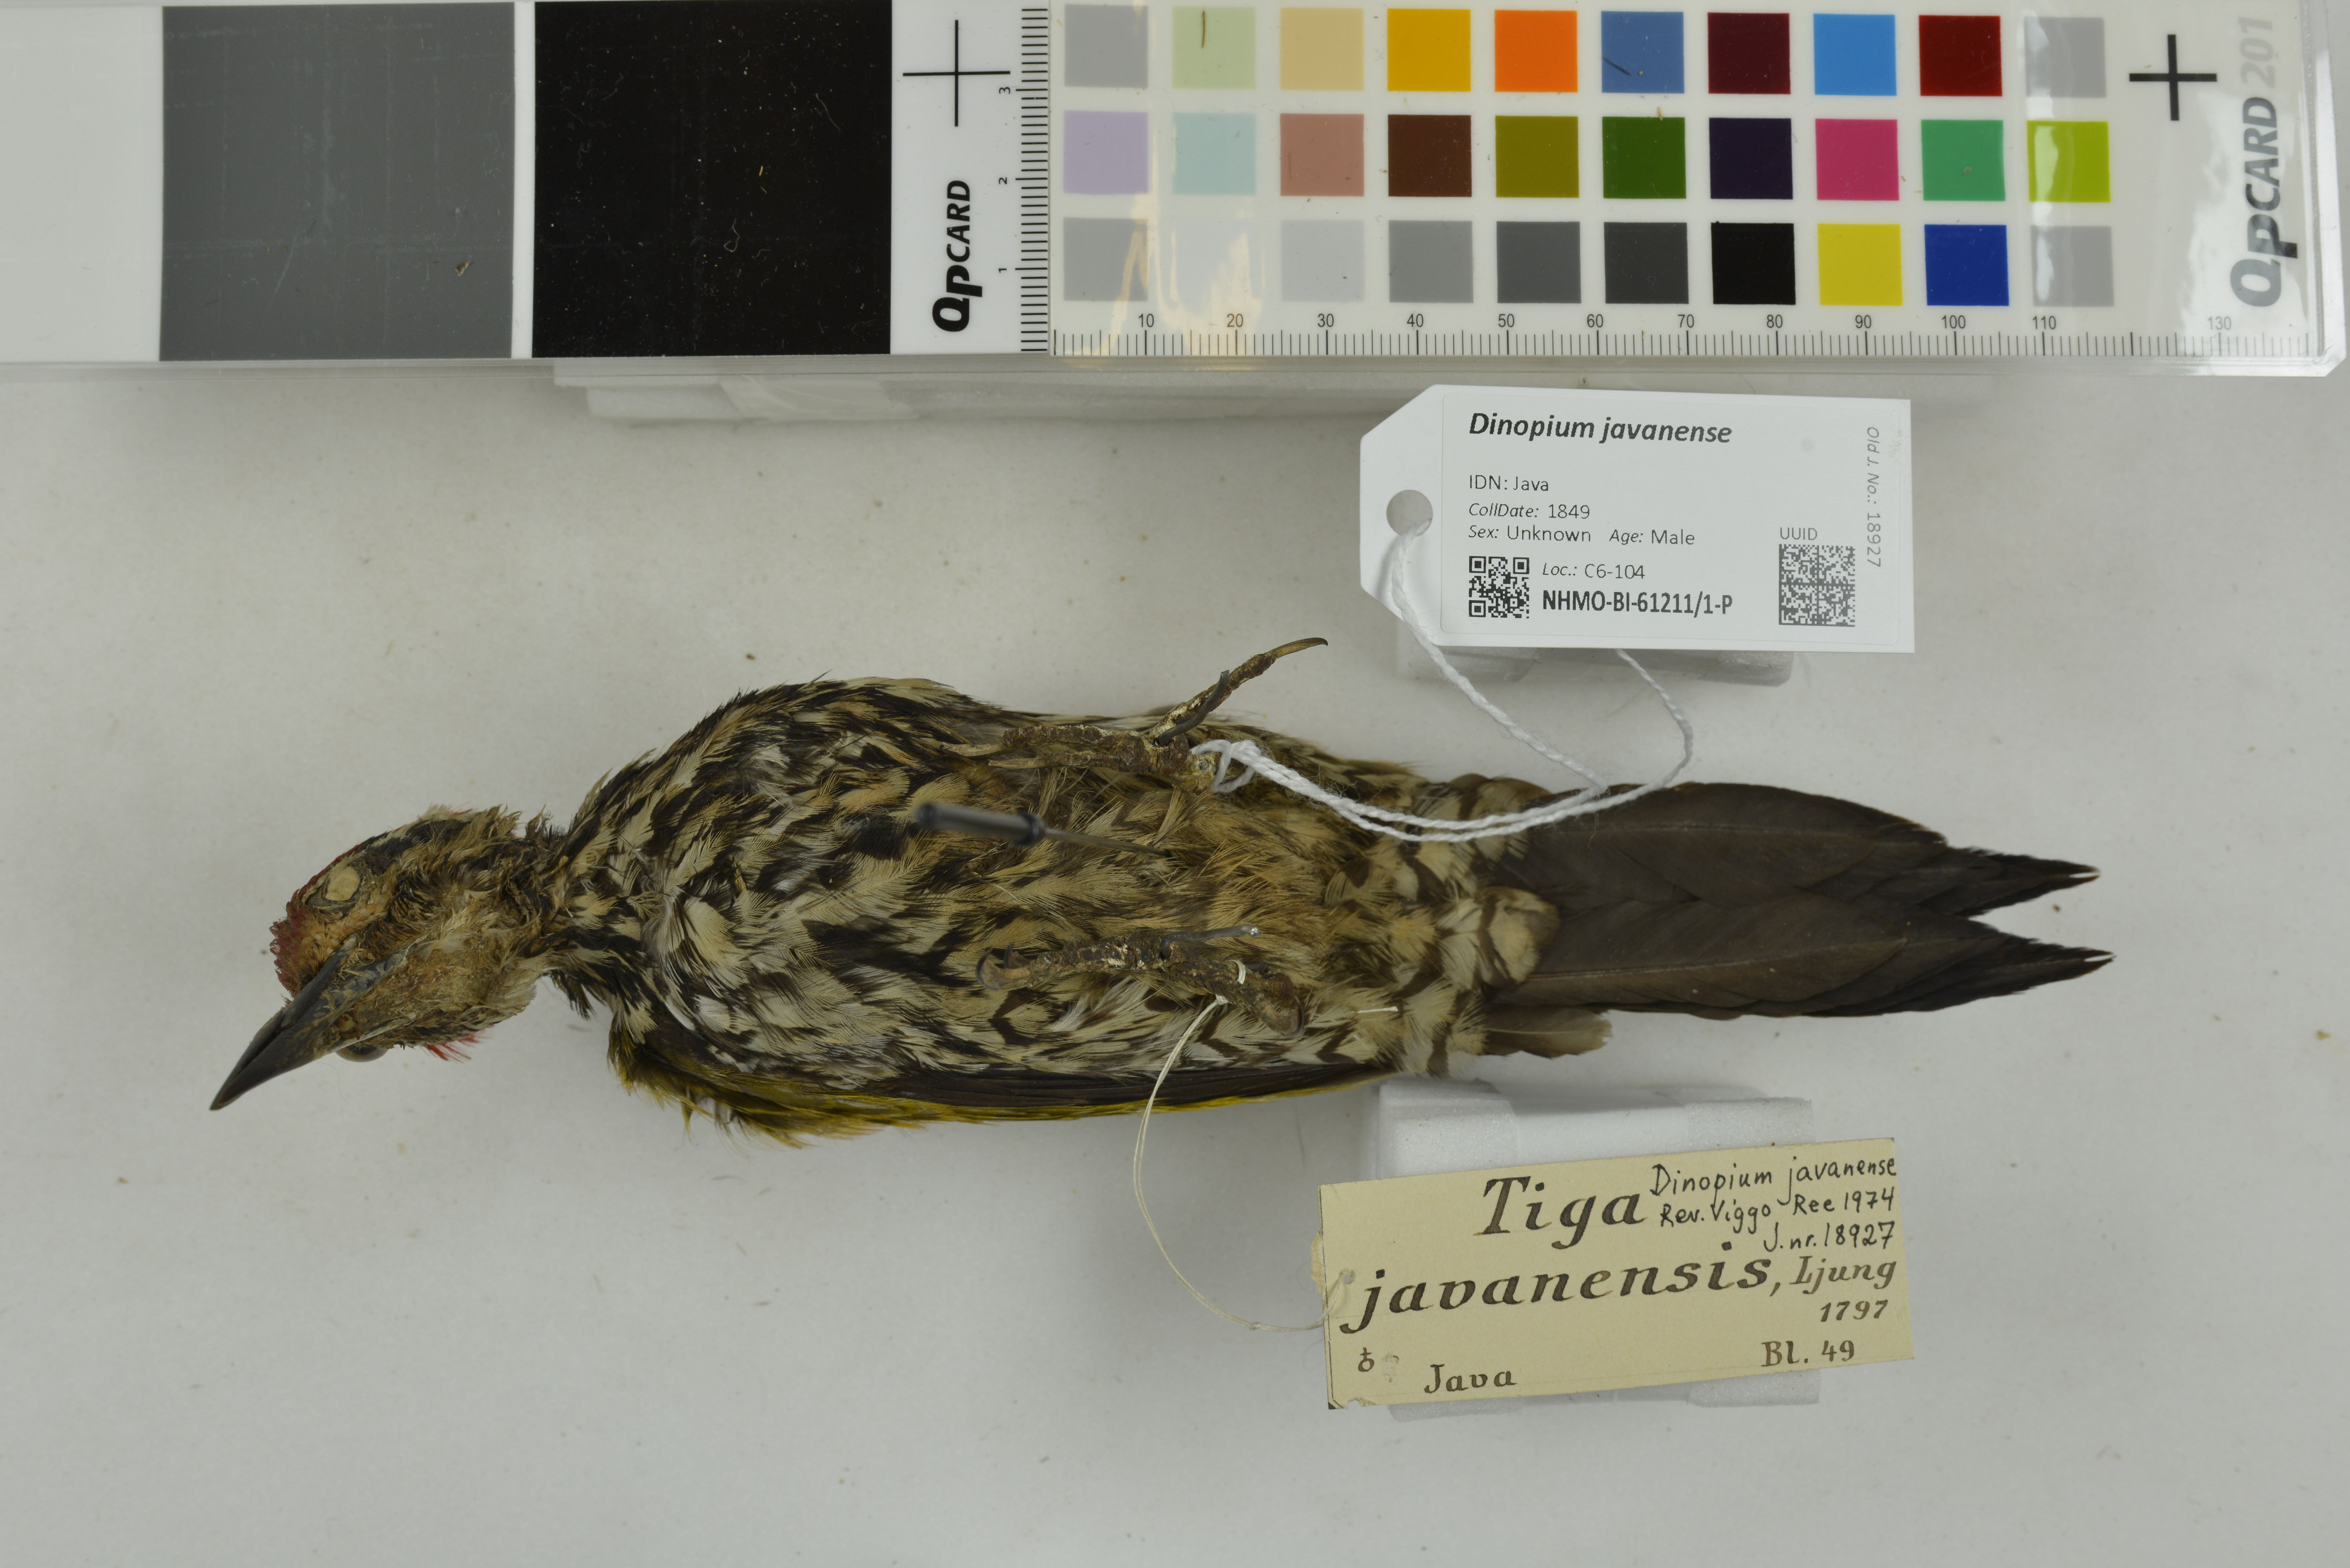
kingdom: Animalia
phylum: Chordata
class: Aves
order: Piciformes
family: Picidae
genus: Dinopium
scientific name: Dinopium javanense
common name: Common flameback
